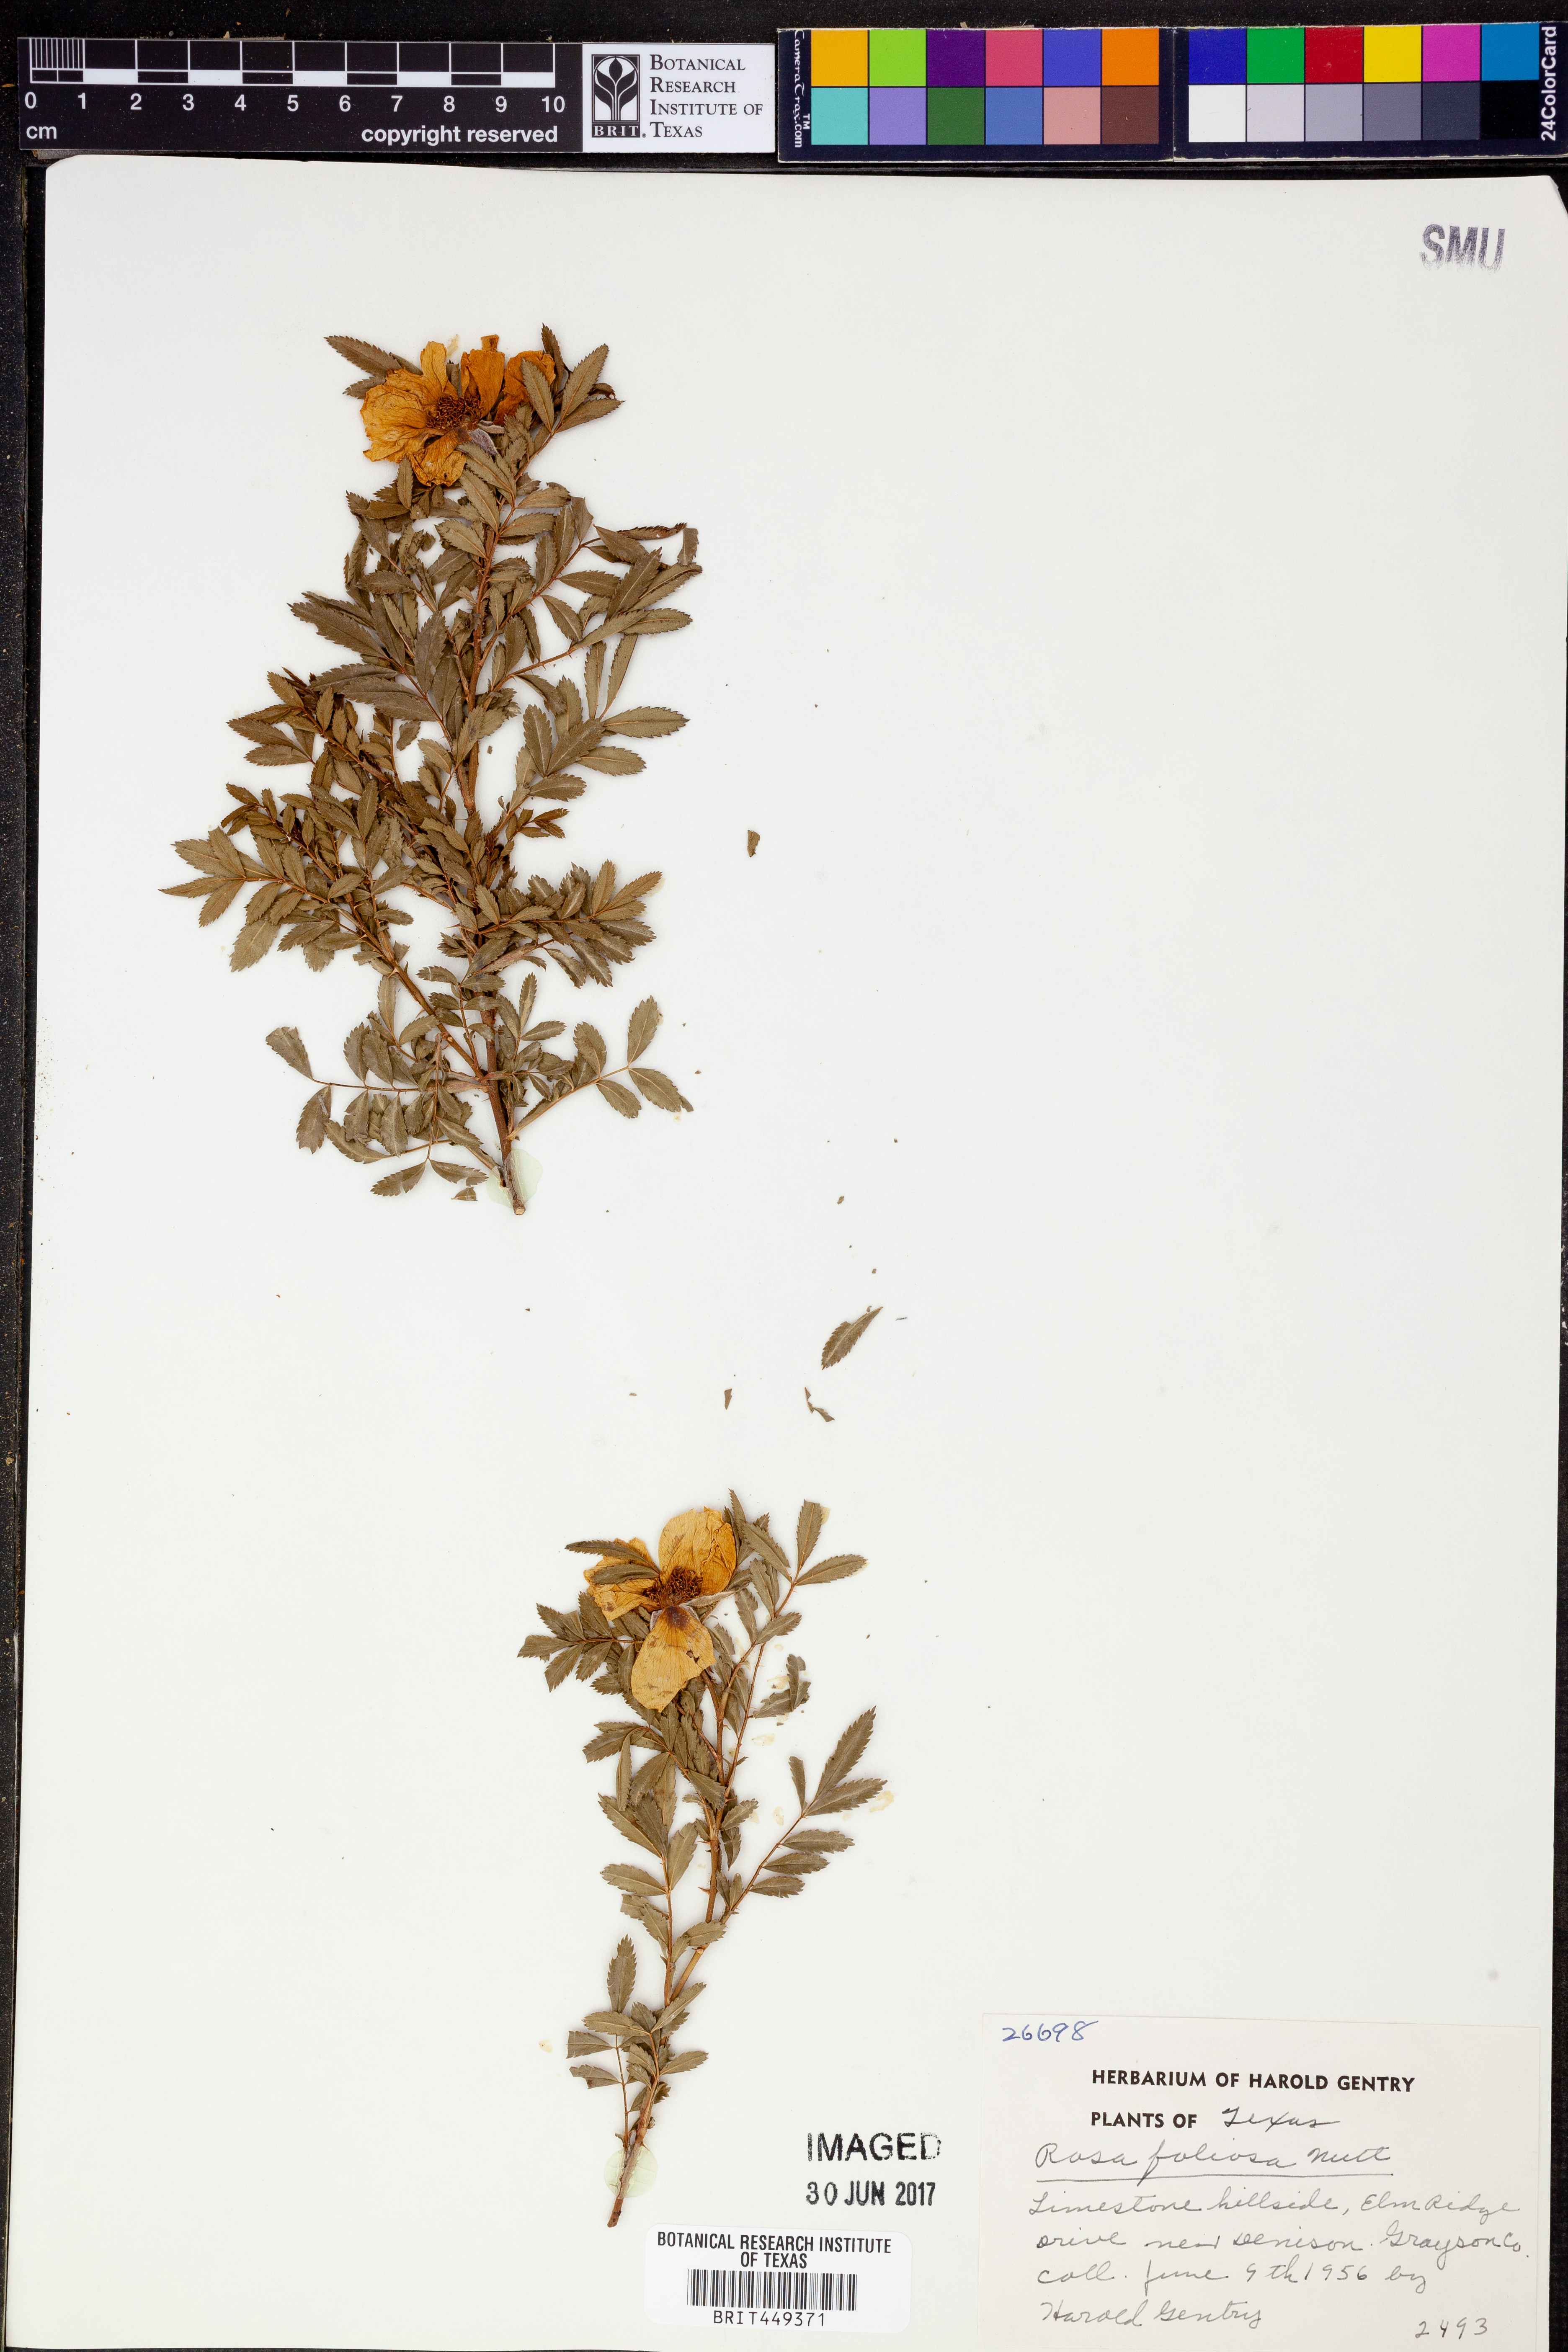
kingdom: Plantae
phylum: Tracheophyta
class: Magnoliopsida
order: Rosales
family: Rosaceae
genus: Rosa
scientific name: Rosa foliolosa
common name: White prairie rose
